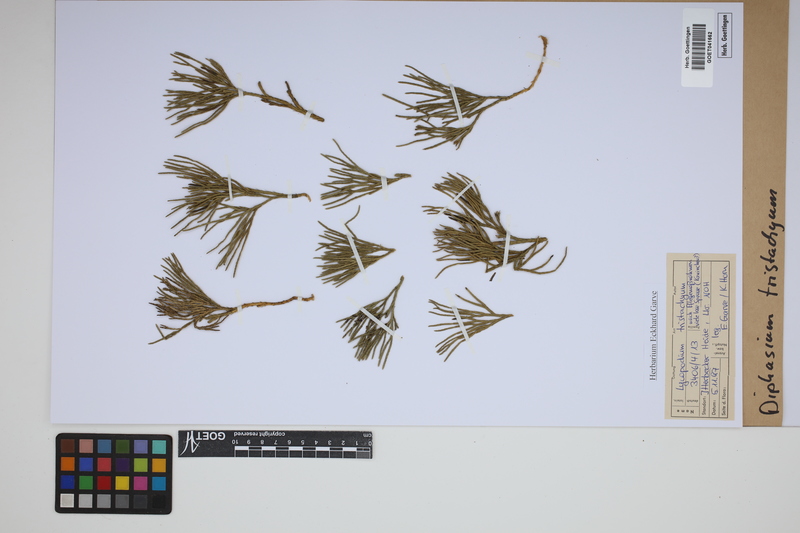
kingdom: Plantae
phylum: Tracheophyta
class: Lycopodiopsida
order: Lycopodiales
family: Lycopodiaceae
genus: Diphasiastrum
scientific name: Diphasiastrum tristachyum
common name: Blue ground-cedar
